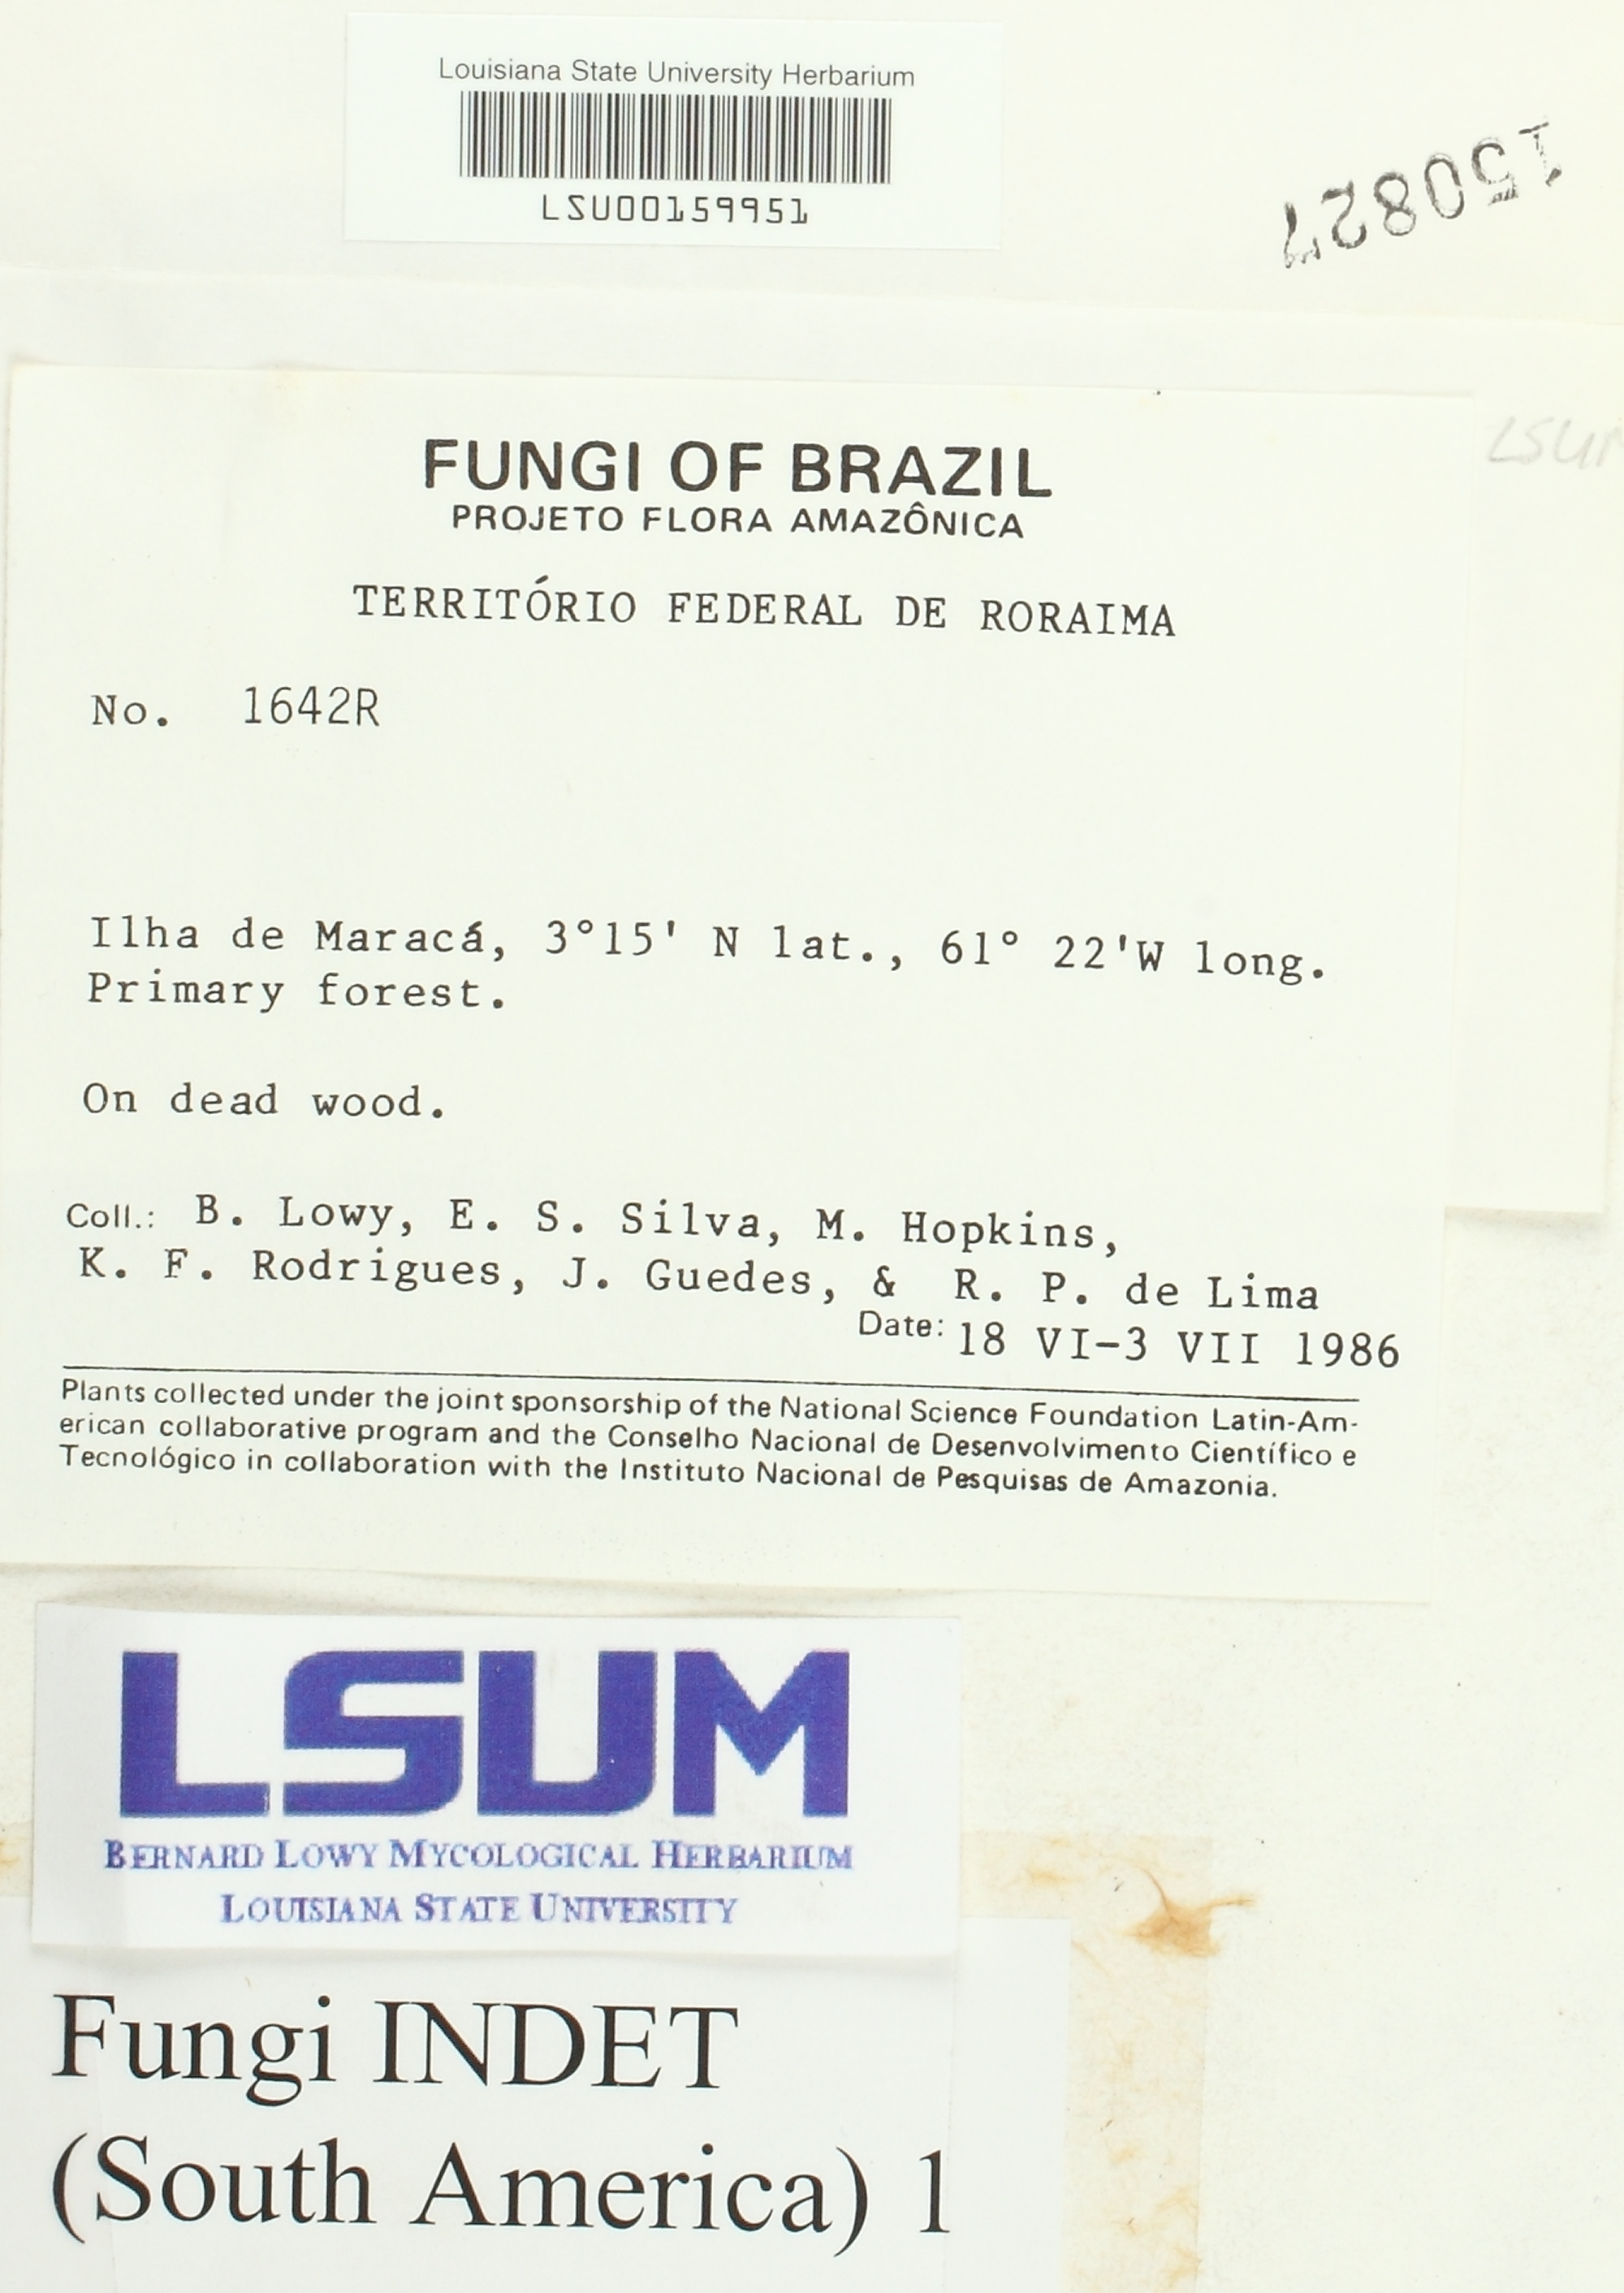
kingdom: Fungi
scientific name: Fungi
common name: Fungi
